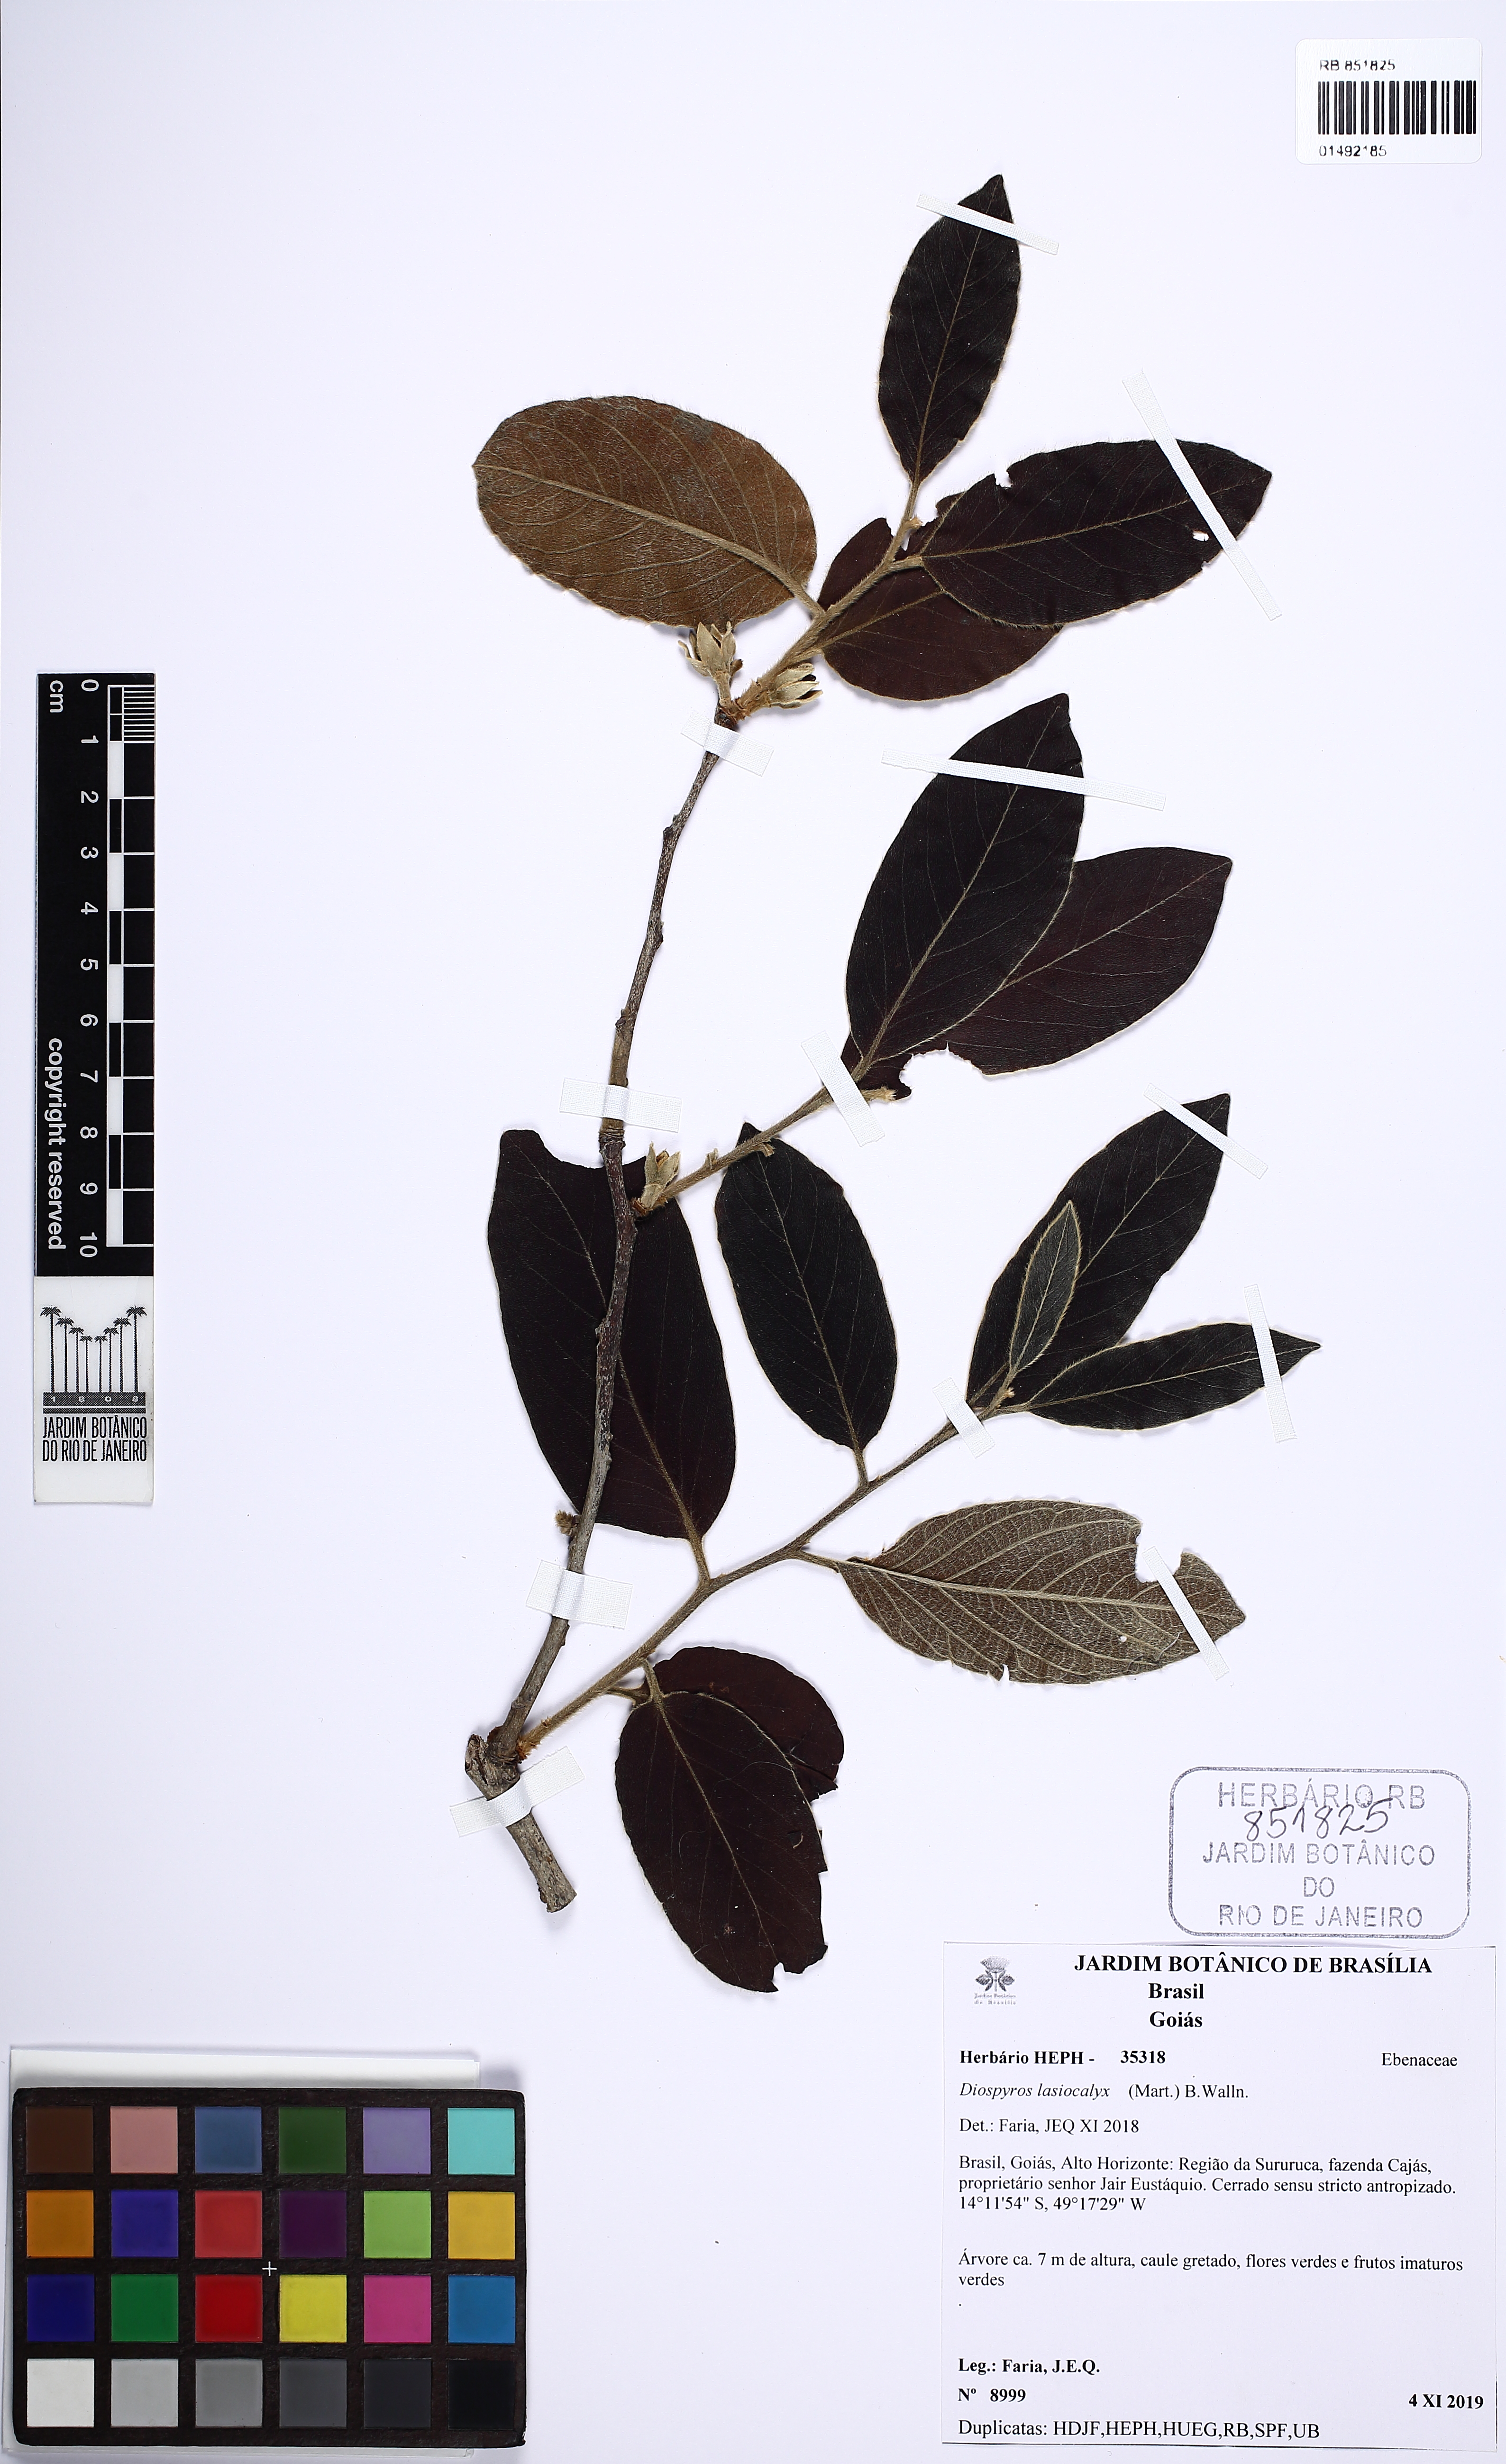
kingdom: Plantae
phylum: Tracheophyta
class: Magnoliopsida
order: Ericales
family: Ebenaceae
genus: Diospyros
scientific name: Diospyros lasiocalyx
